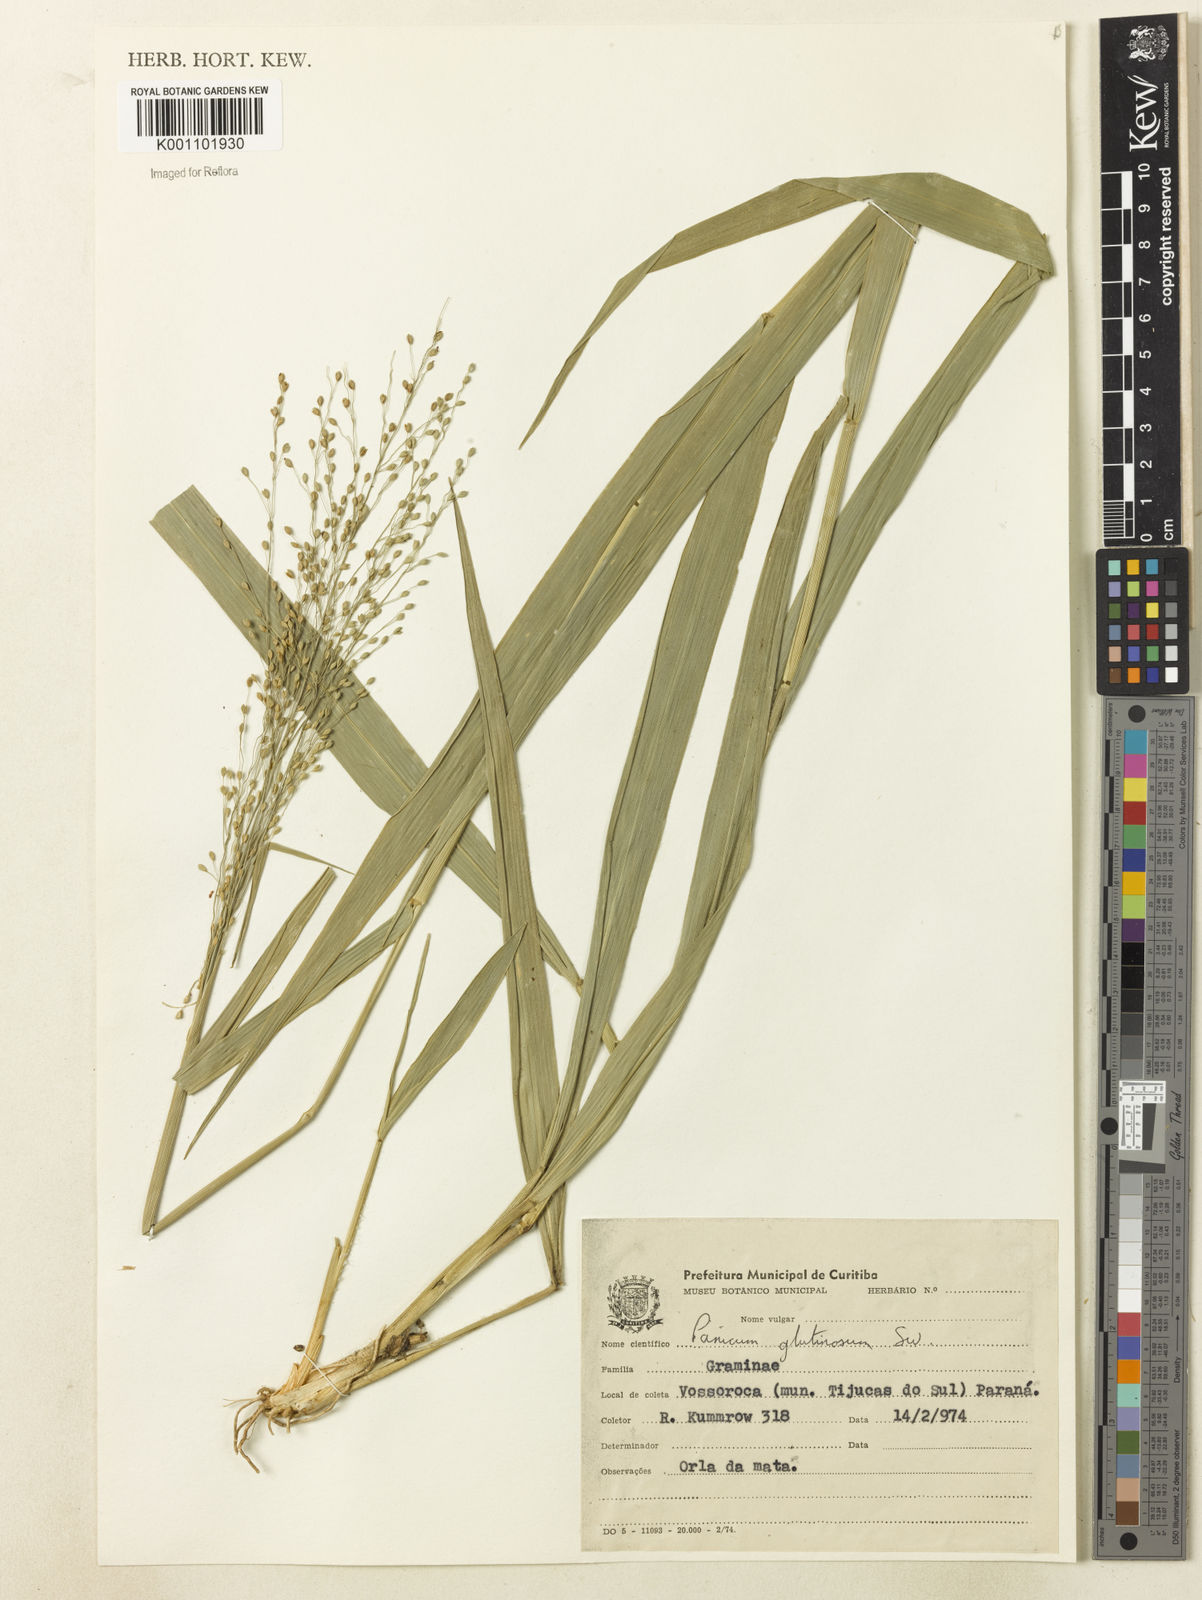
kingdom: Plantae
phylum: Tracheophyta
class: Liliopsida
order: Poales
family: Poaceae
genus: Homolepis
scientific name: Homolepis glutinosa
